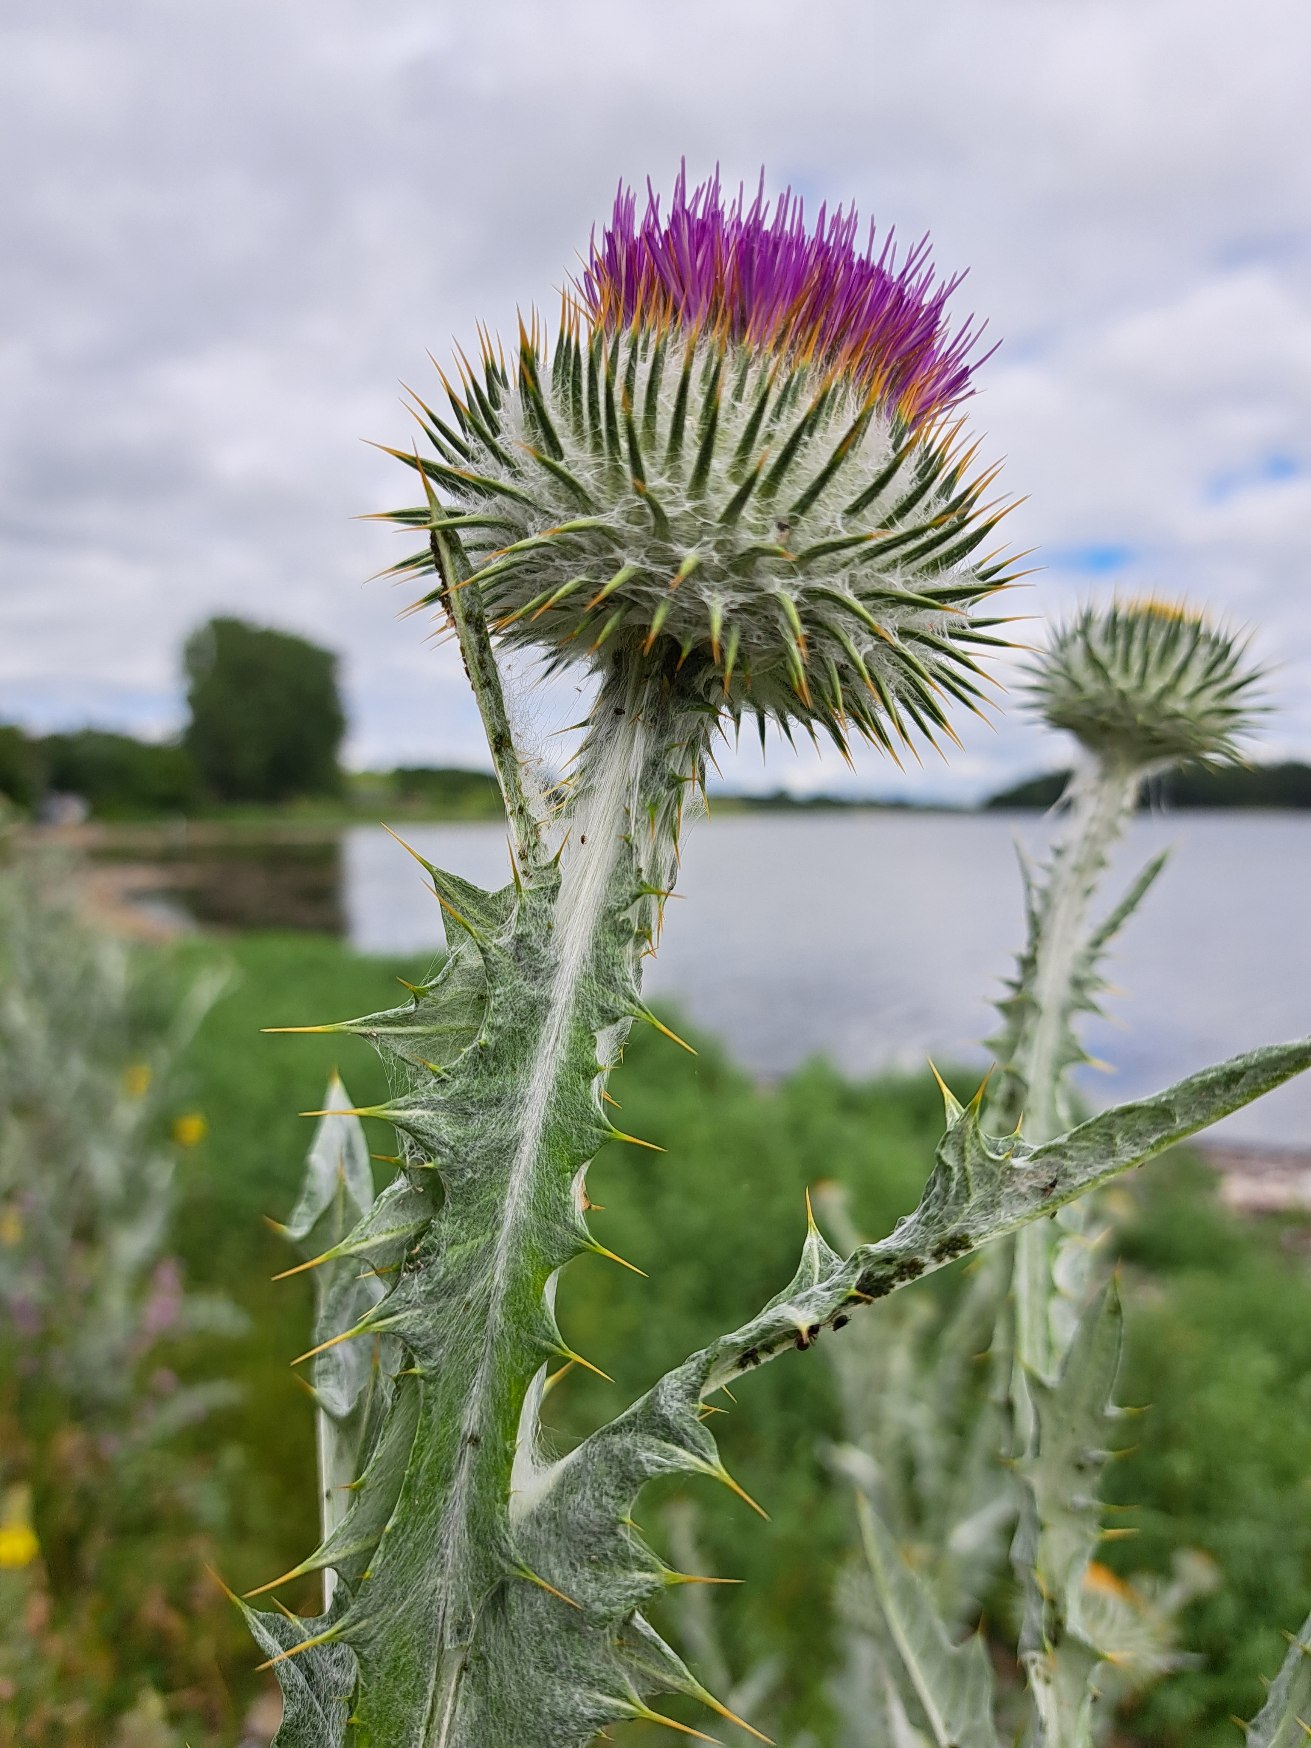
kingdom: Plantae
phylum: Tracheophyta
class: Magnoliopsida
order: Asterales
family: Asteraceae
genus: Onopordum
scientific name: Onopordum acanthium
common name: Æselfoder
